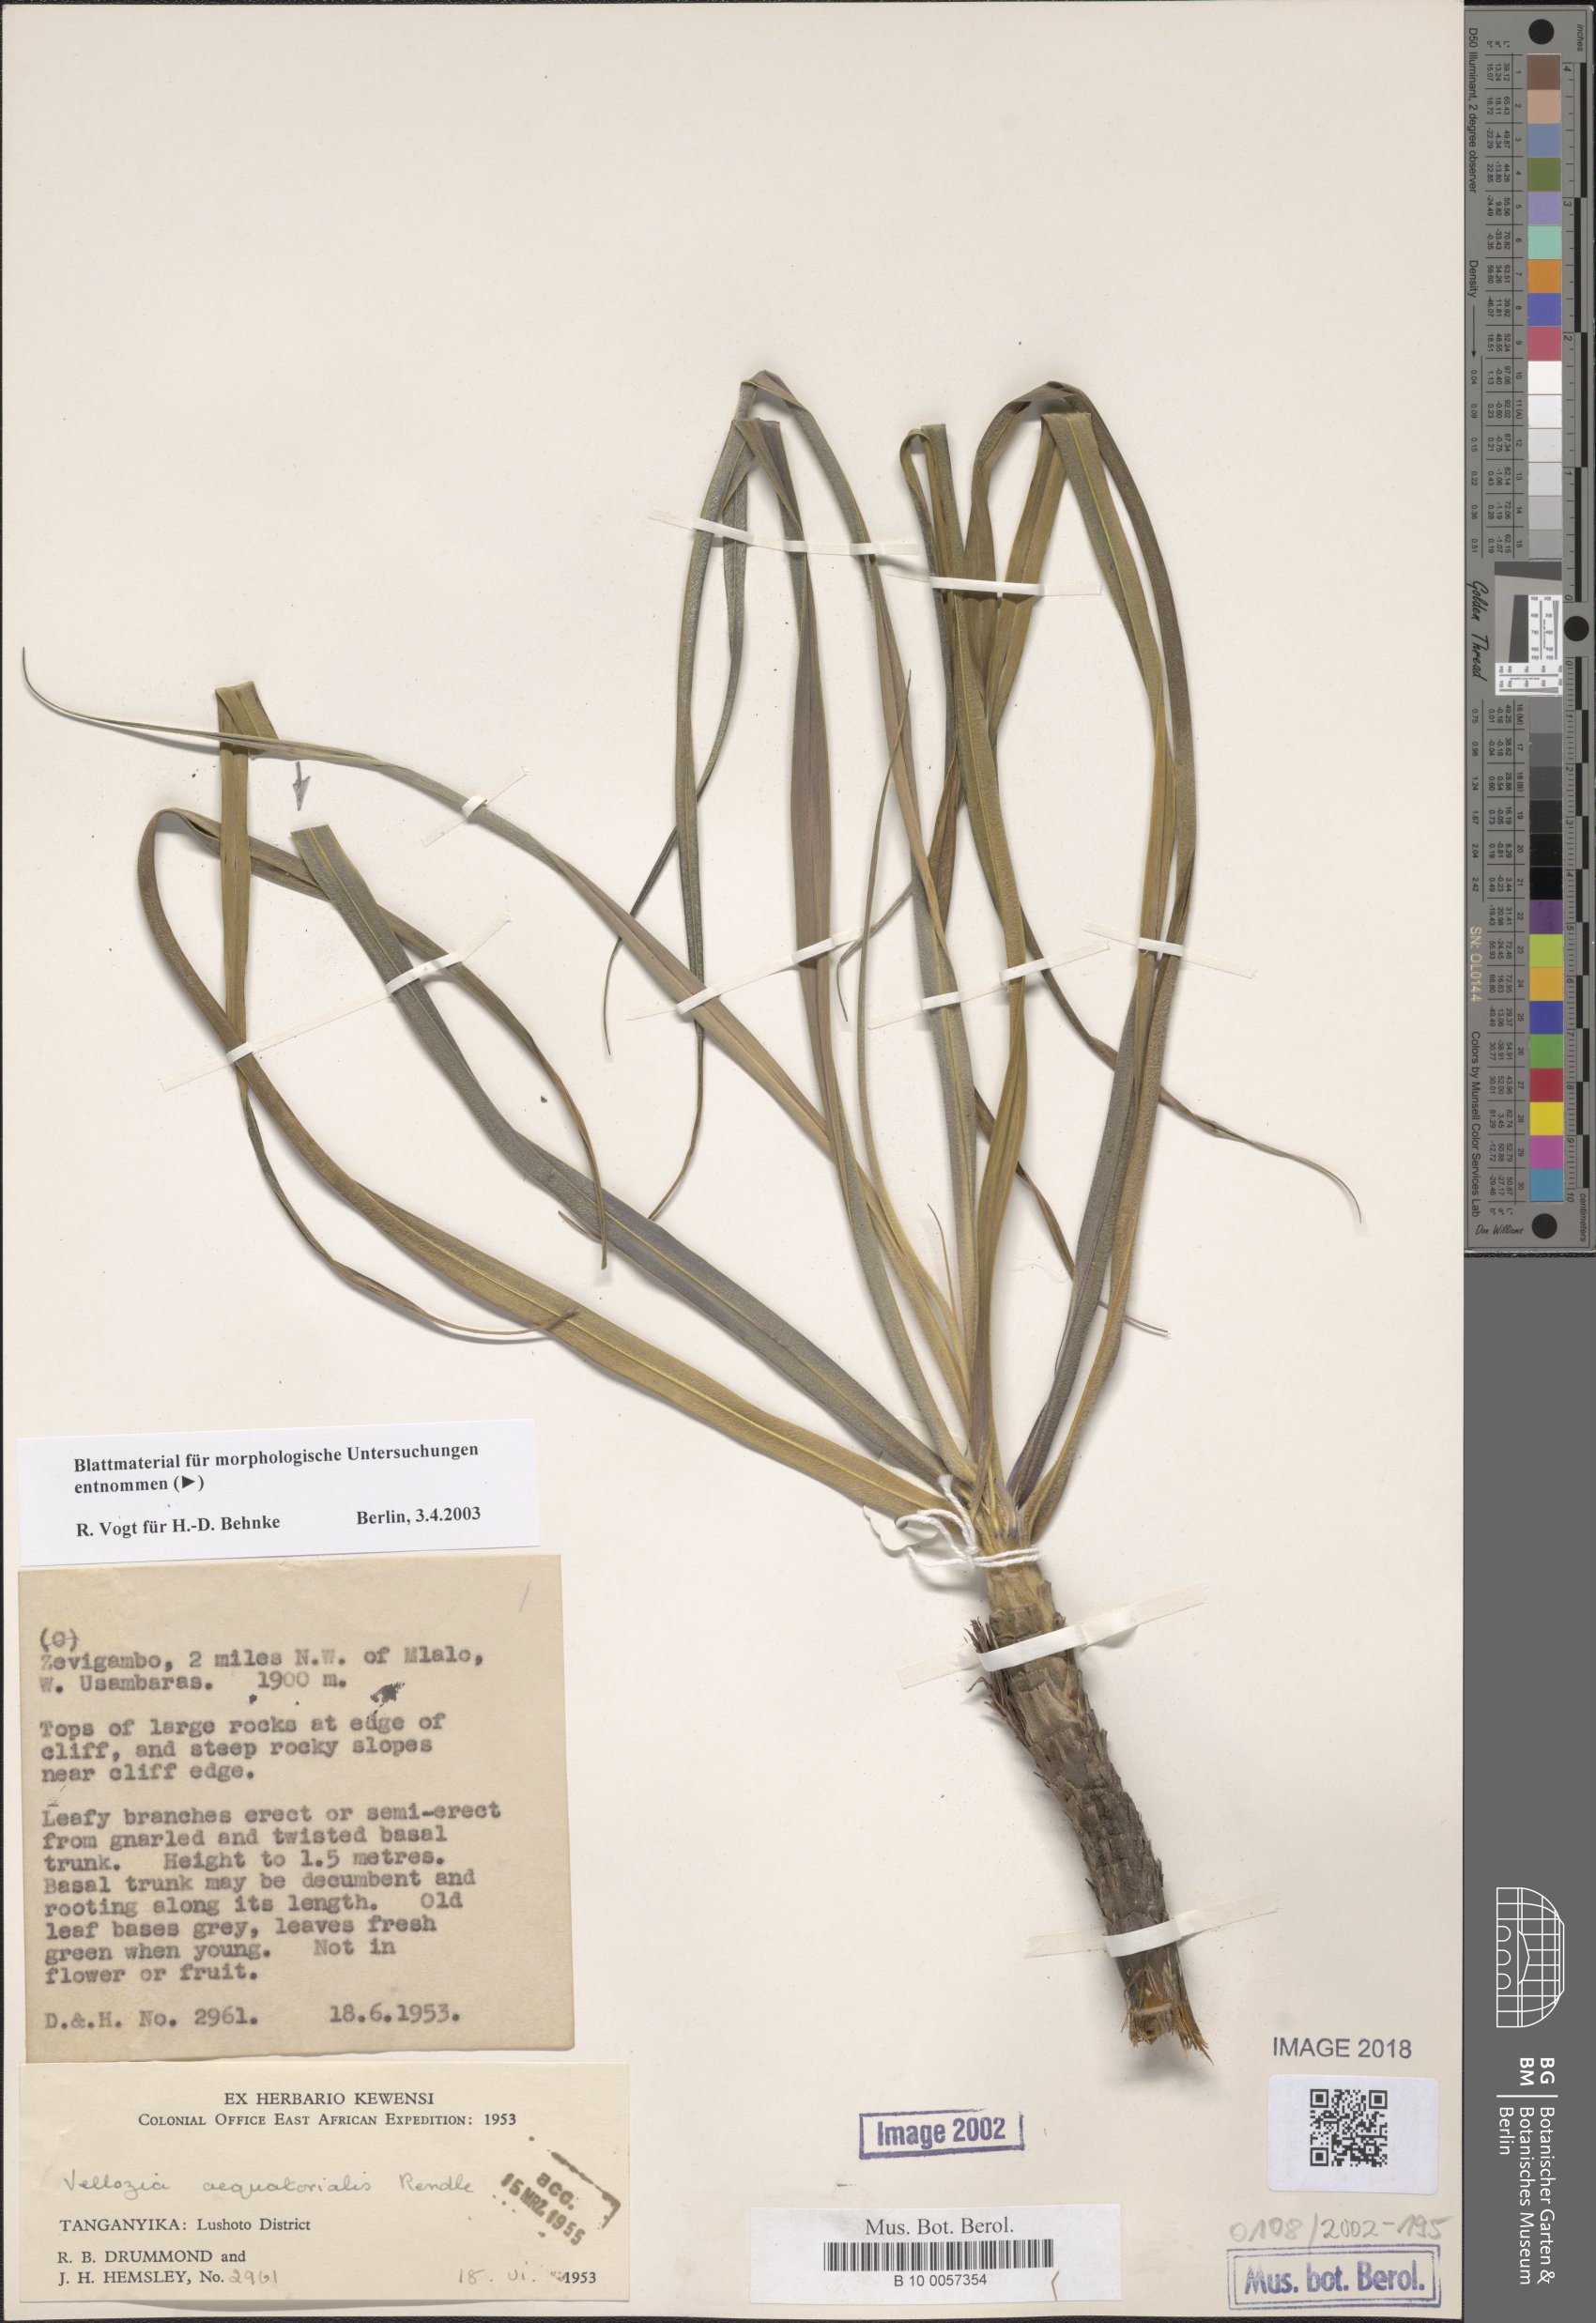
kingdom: Plantae
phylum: Tracheophyta
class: Liliopsida
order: Pandanales
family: Velloziaceae
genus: Xerophyta
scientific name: Xerophyta spekei
